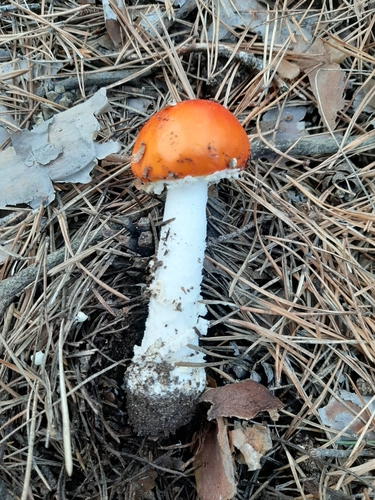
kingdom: Fungi
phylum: Basidiomycota
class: Agaricomycetes
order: Agaricales
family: Amanitaceae
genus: Amanita
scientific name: Amanita muscaria
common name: Fly agaric
